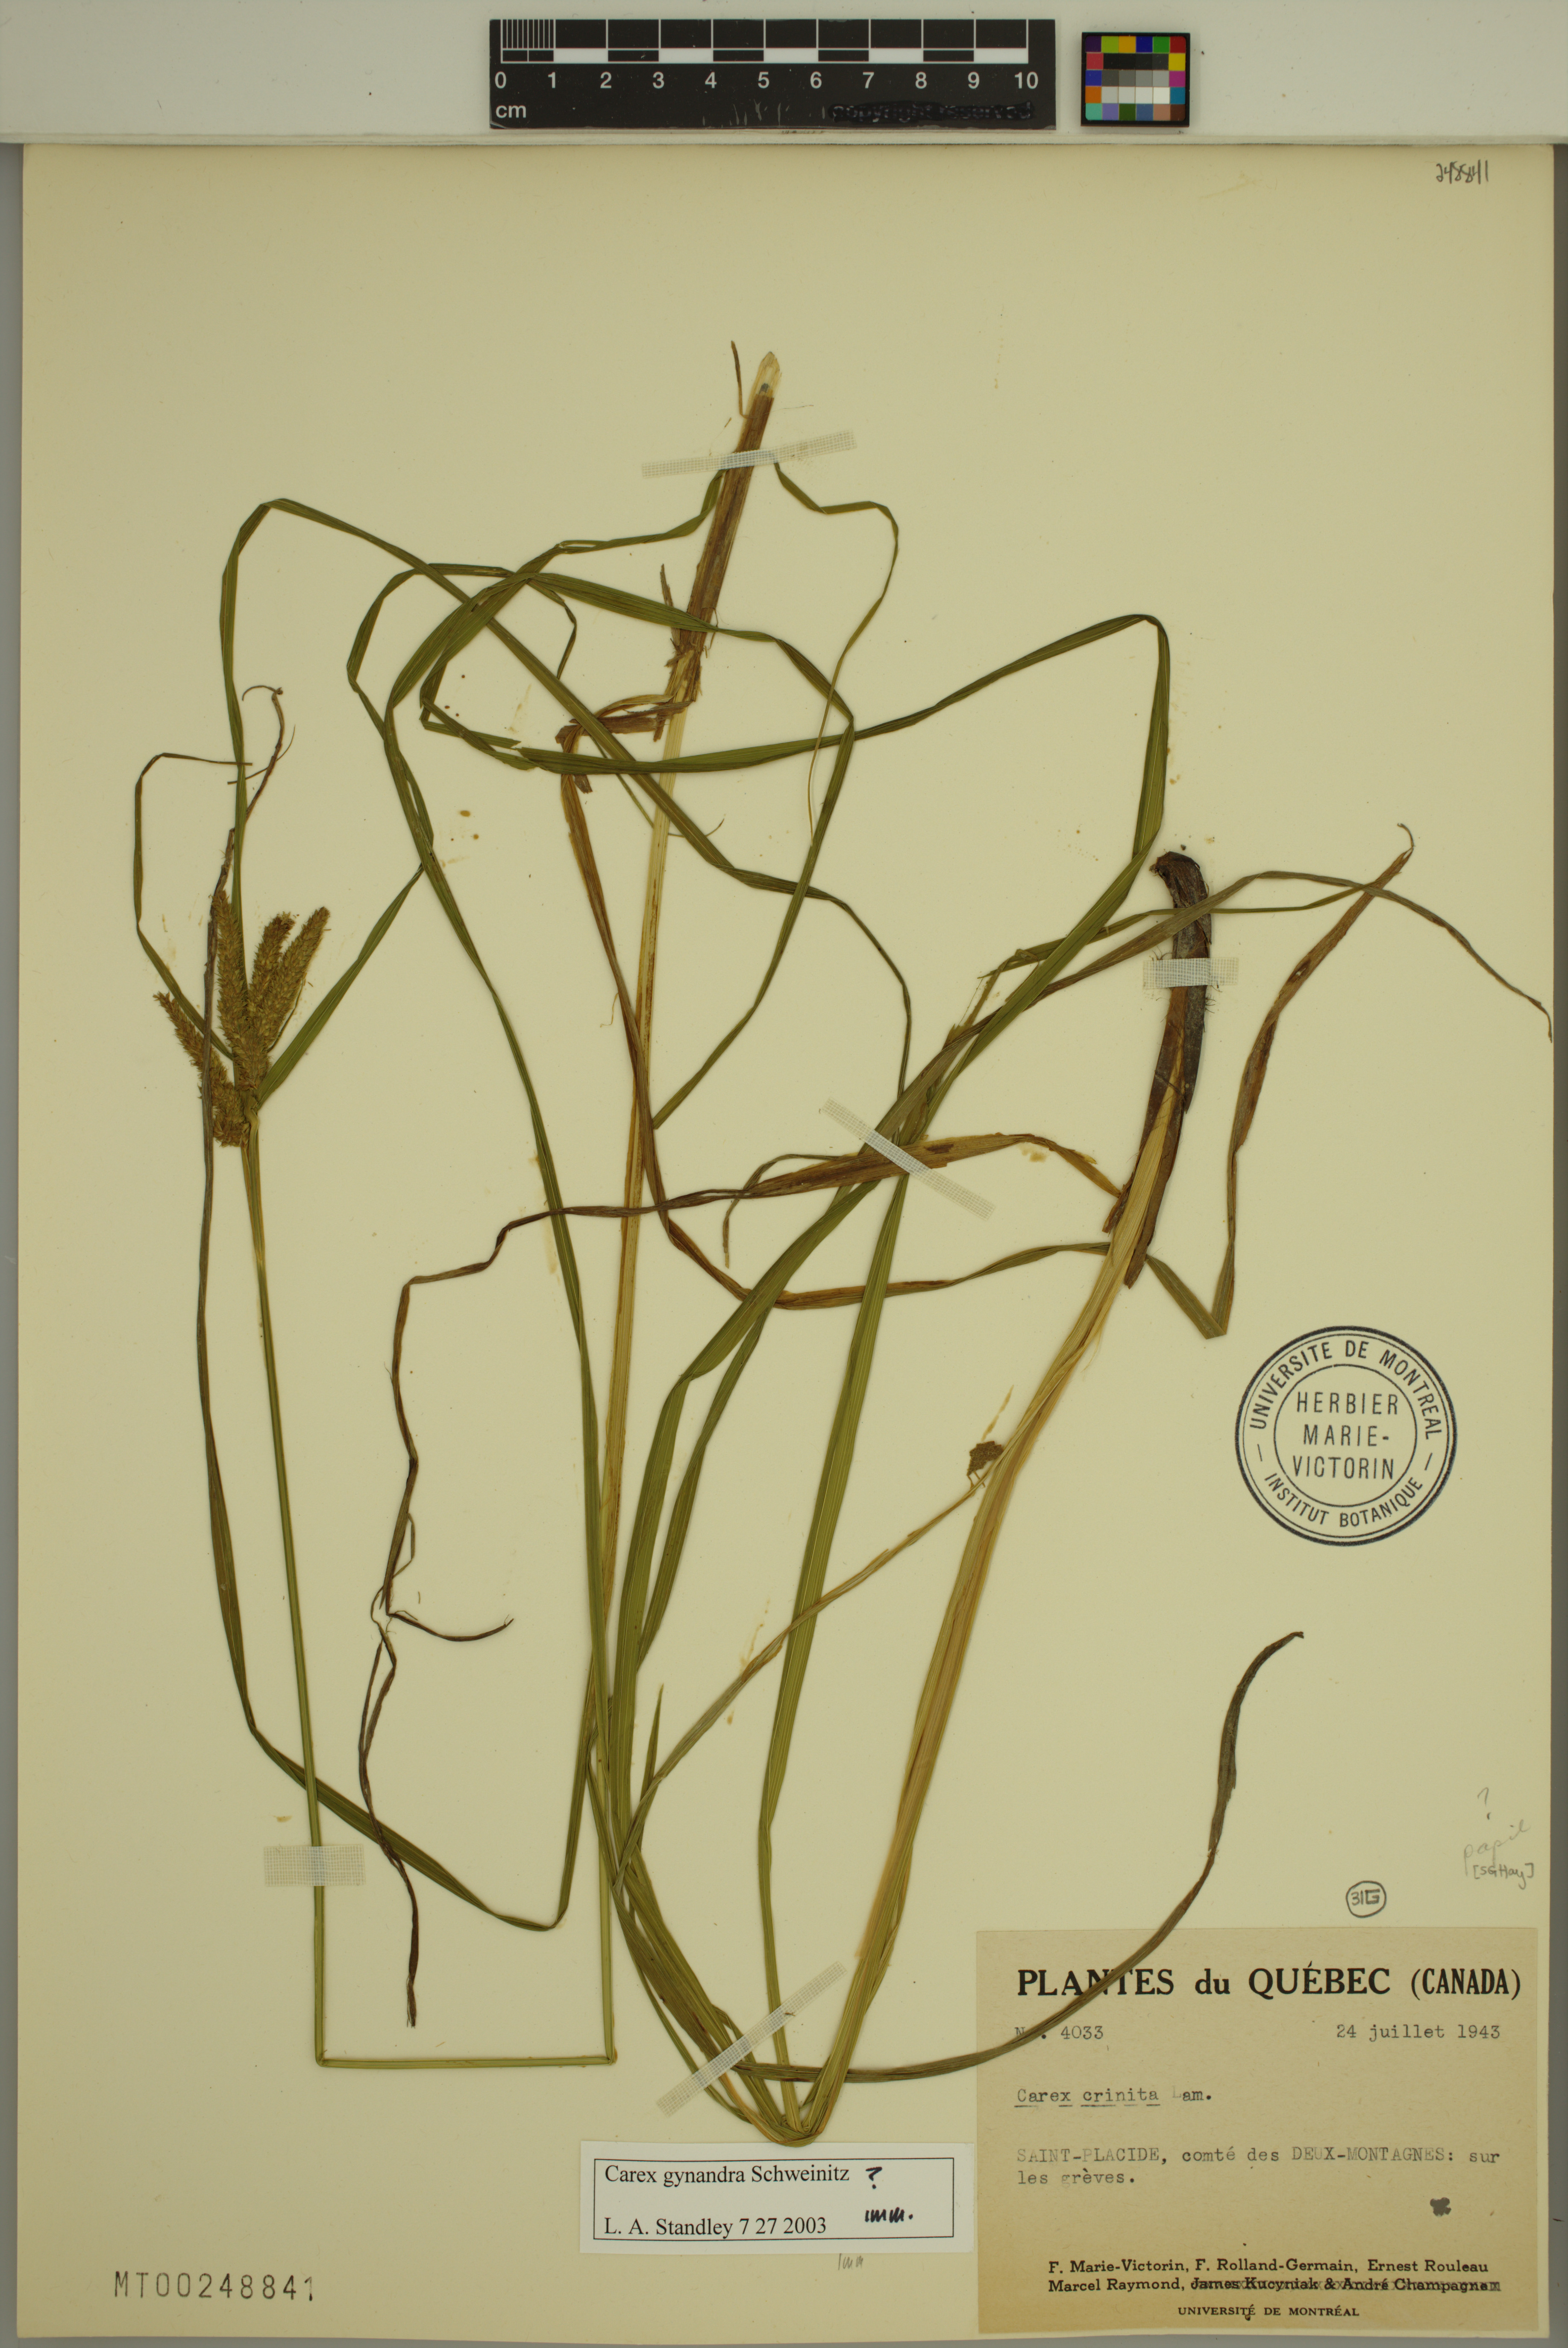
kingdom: Plantae
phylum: Tracheophyta
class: Liliopsida
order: Poales
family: Cyperaceae
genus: Carex
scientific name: Carex gynandra
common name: Nodding sedge
